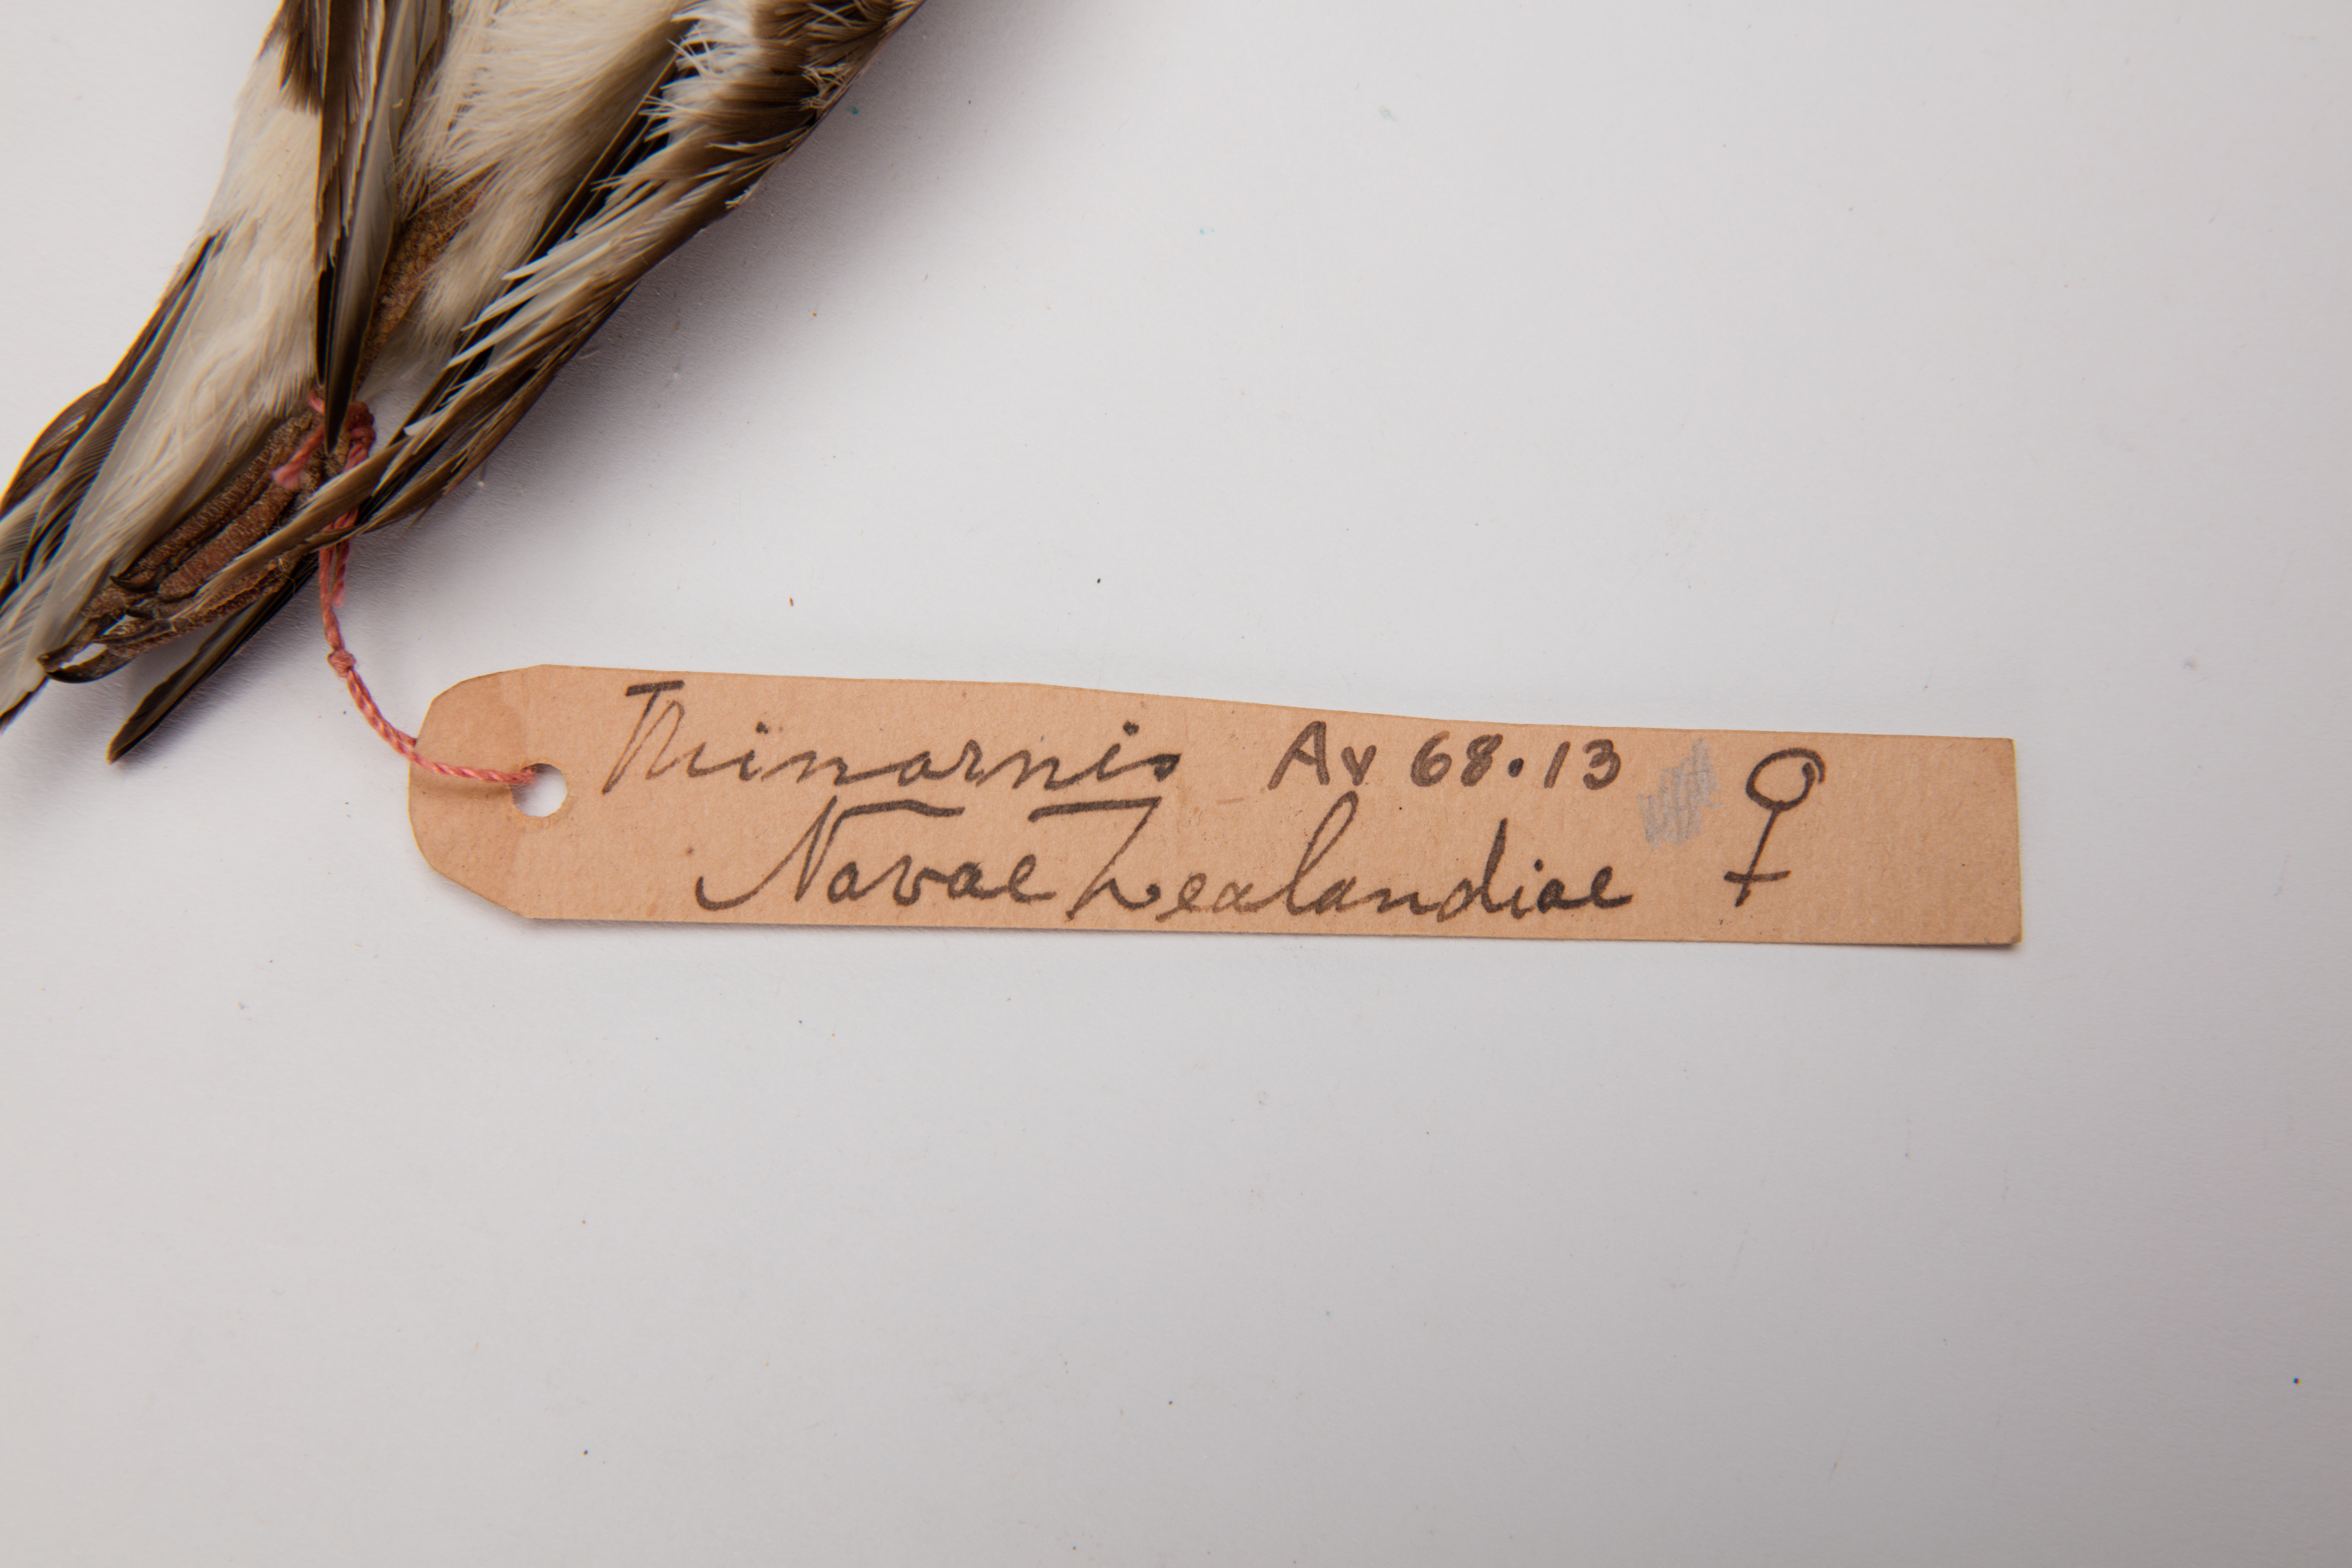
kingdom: Animalia
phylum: Chordata
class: Aves
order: Charadriiformes
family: Charadriidae
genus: Thinornis
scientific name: Thinornis novaeseelandiae
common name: Shore dotterel
